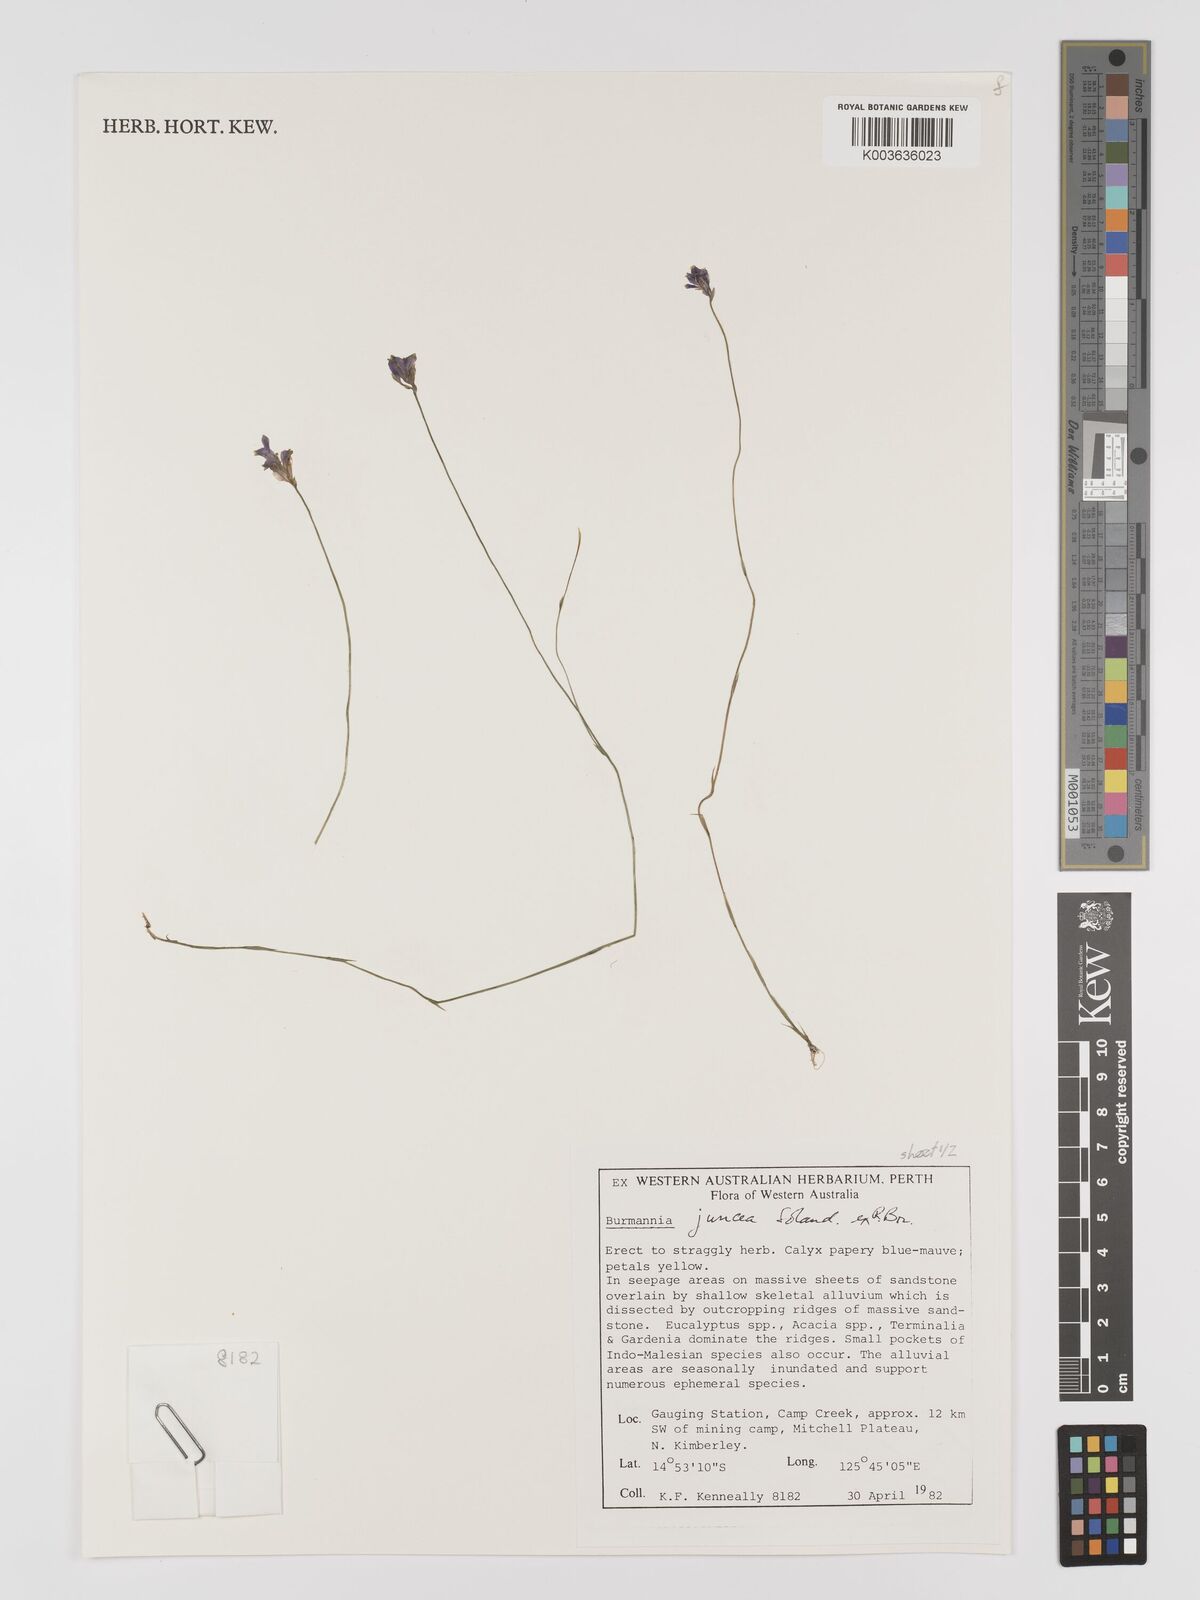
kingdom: Plantae
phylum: Tracheophyta
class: Liliopsida
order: Dioscoreales
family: Burmanniaceae
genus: Burmannia
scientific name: Burmannia juncea
